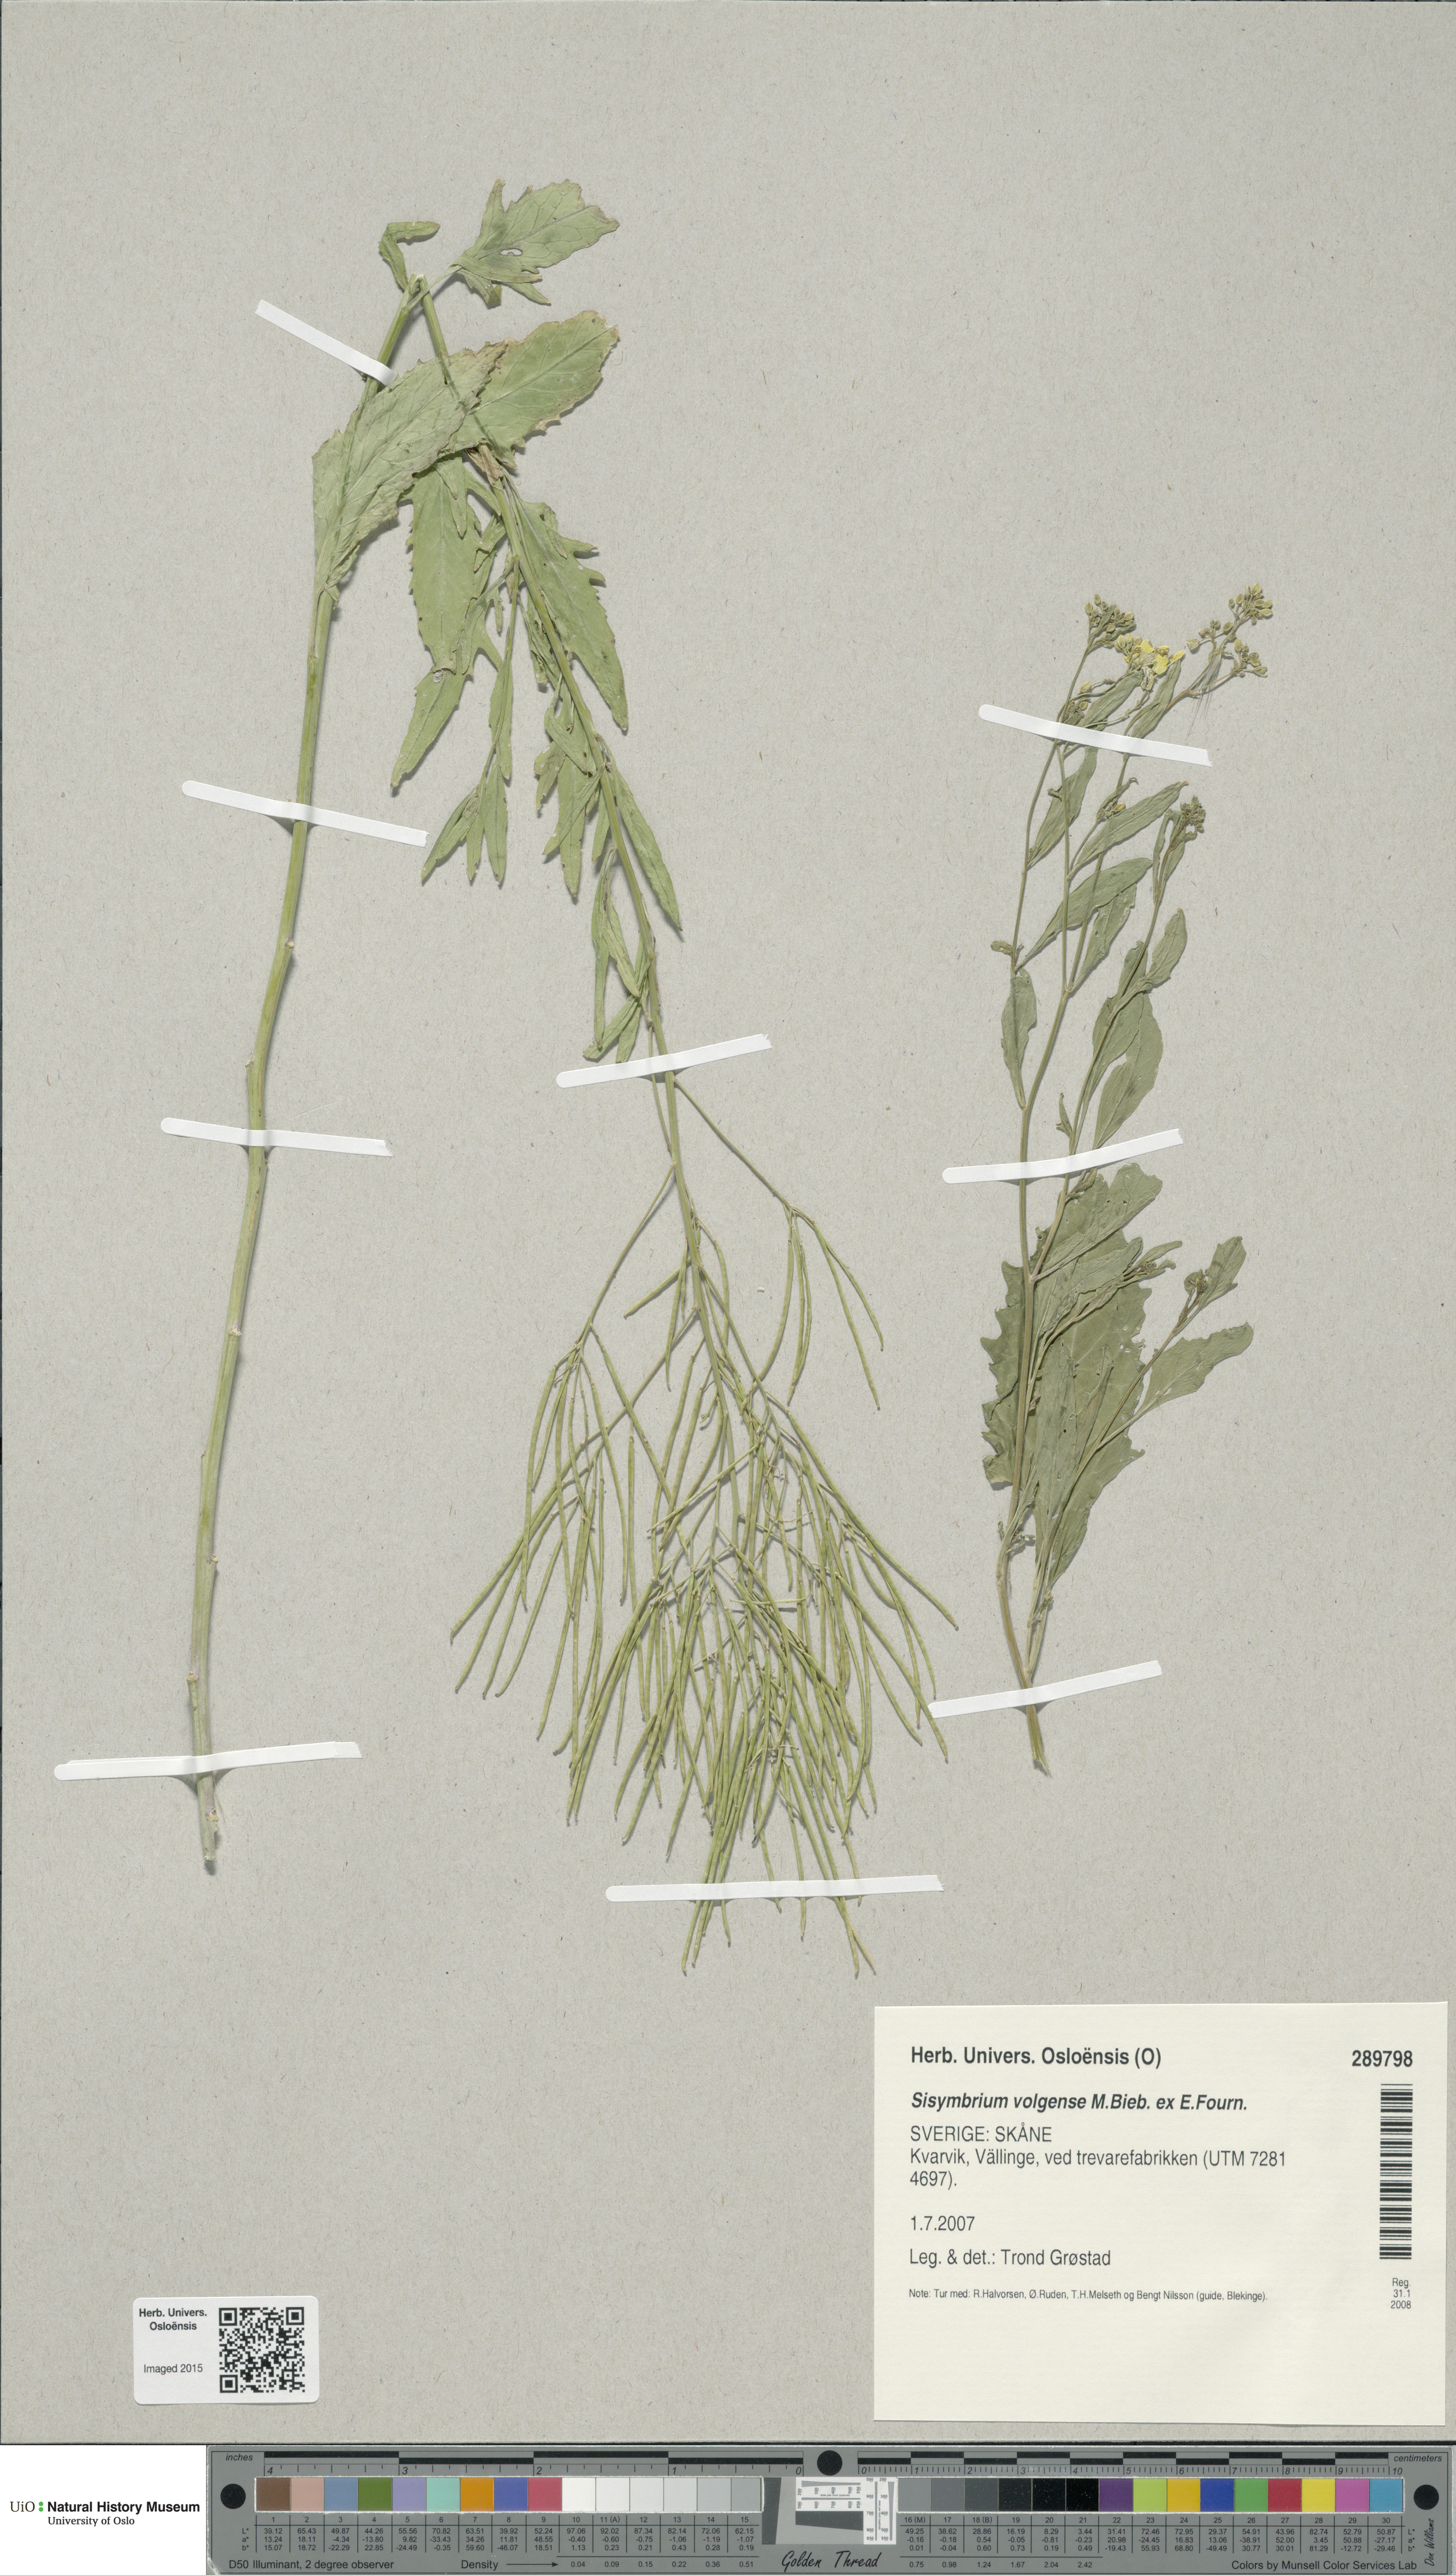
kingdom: Plantae
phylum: Tracheophyta
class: Magnoliopsida
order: Brassicales
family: Brassicaceae
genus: Sisymbrium
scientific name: Sisymbrium volgense
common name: Russian mustard
